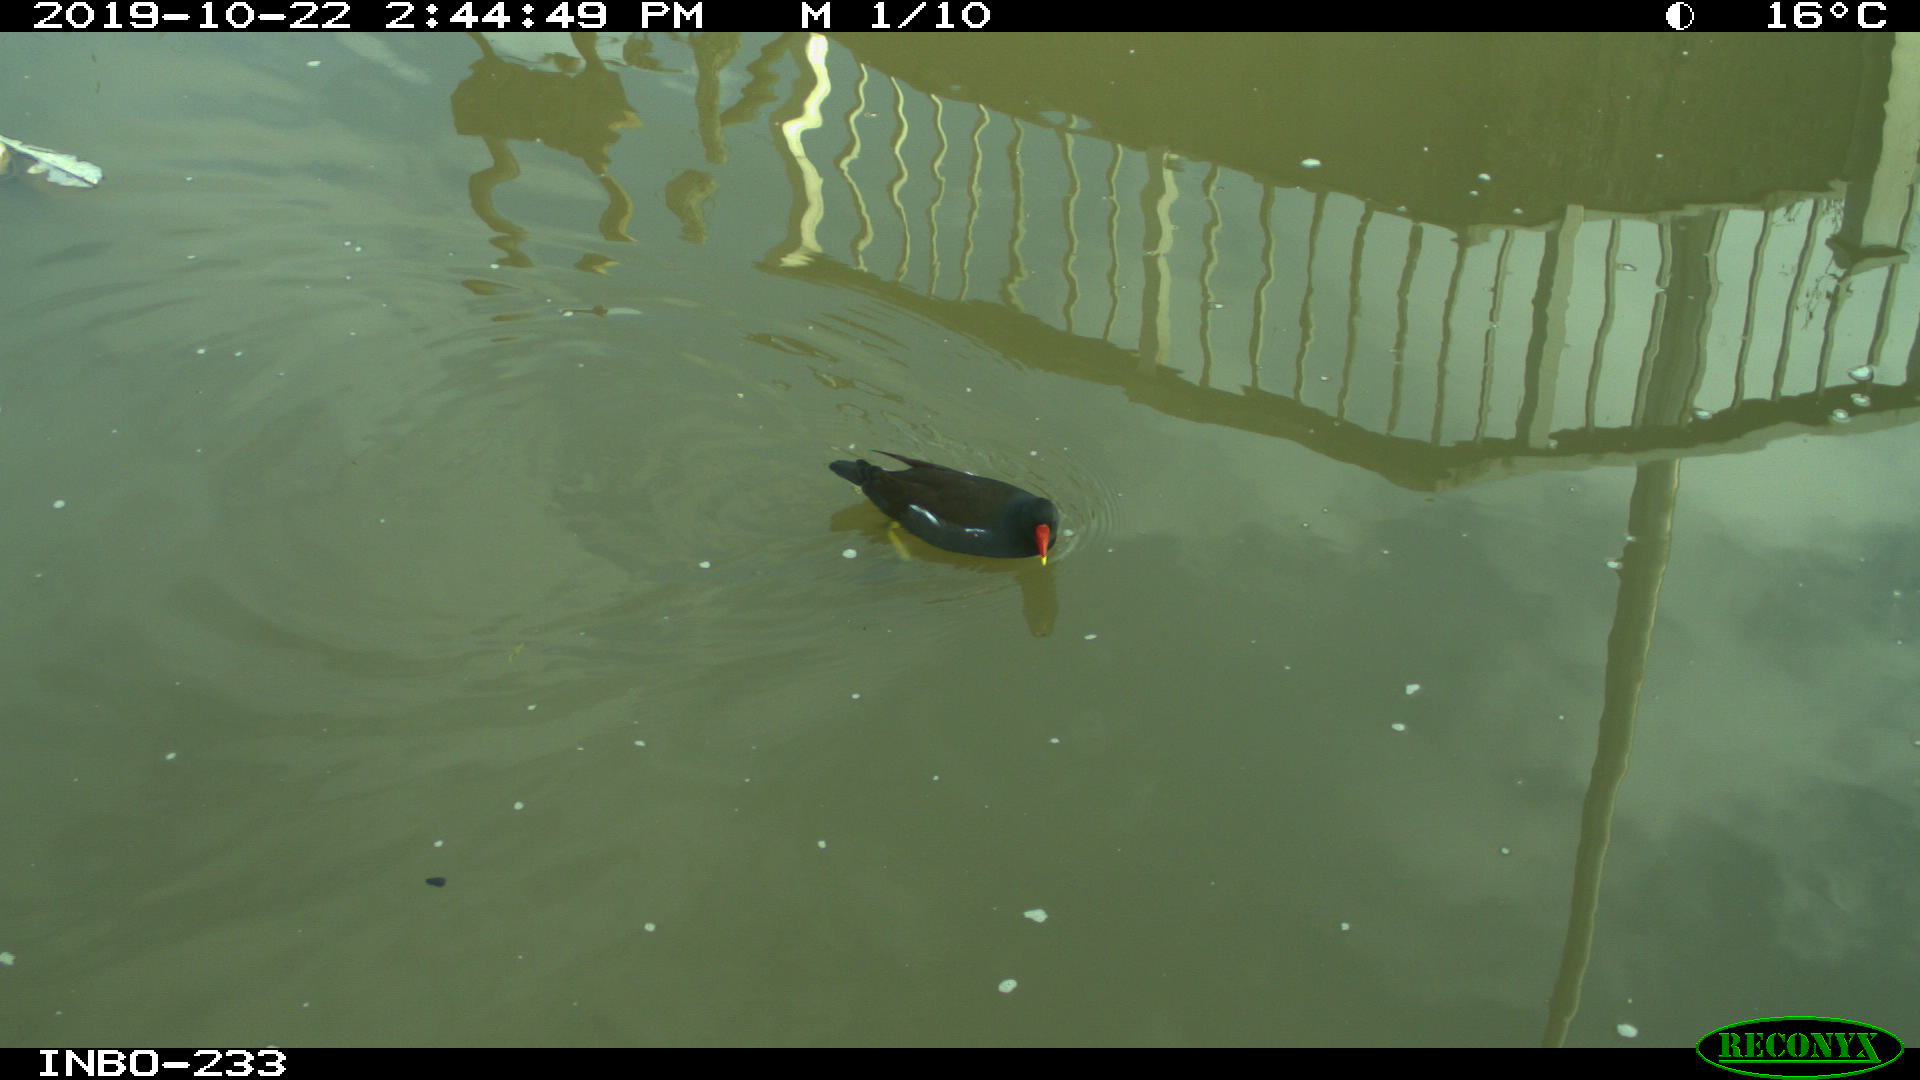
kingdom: Animalia
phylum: Chordata
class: Aves
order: Gruiformes
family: Rallidae
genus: Gallinula
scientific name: Gallinula chloropus
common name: Common moorhen
